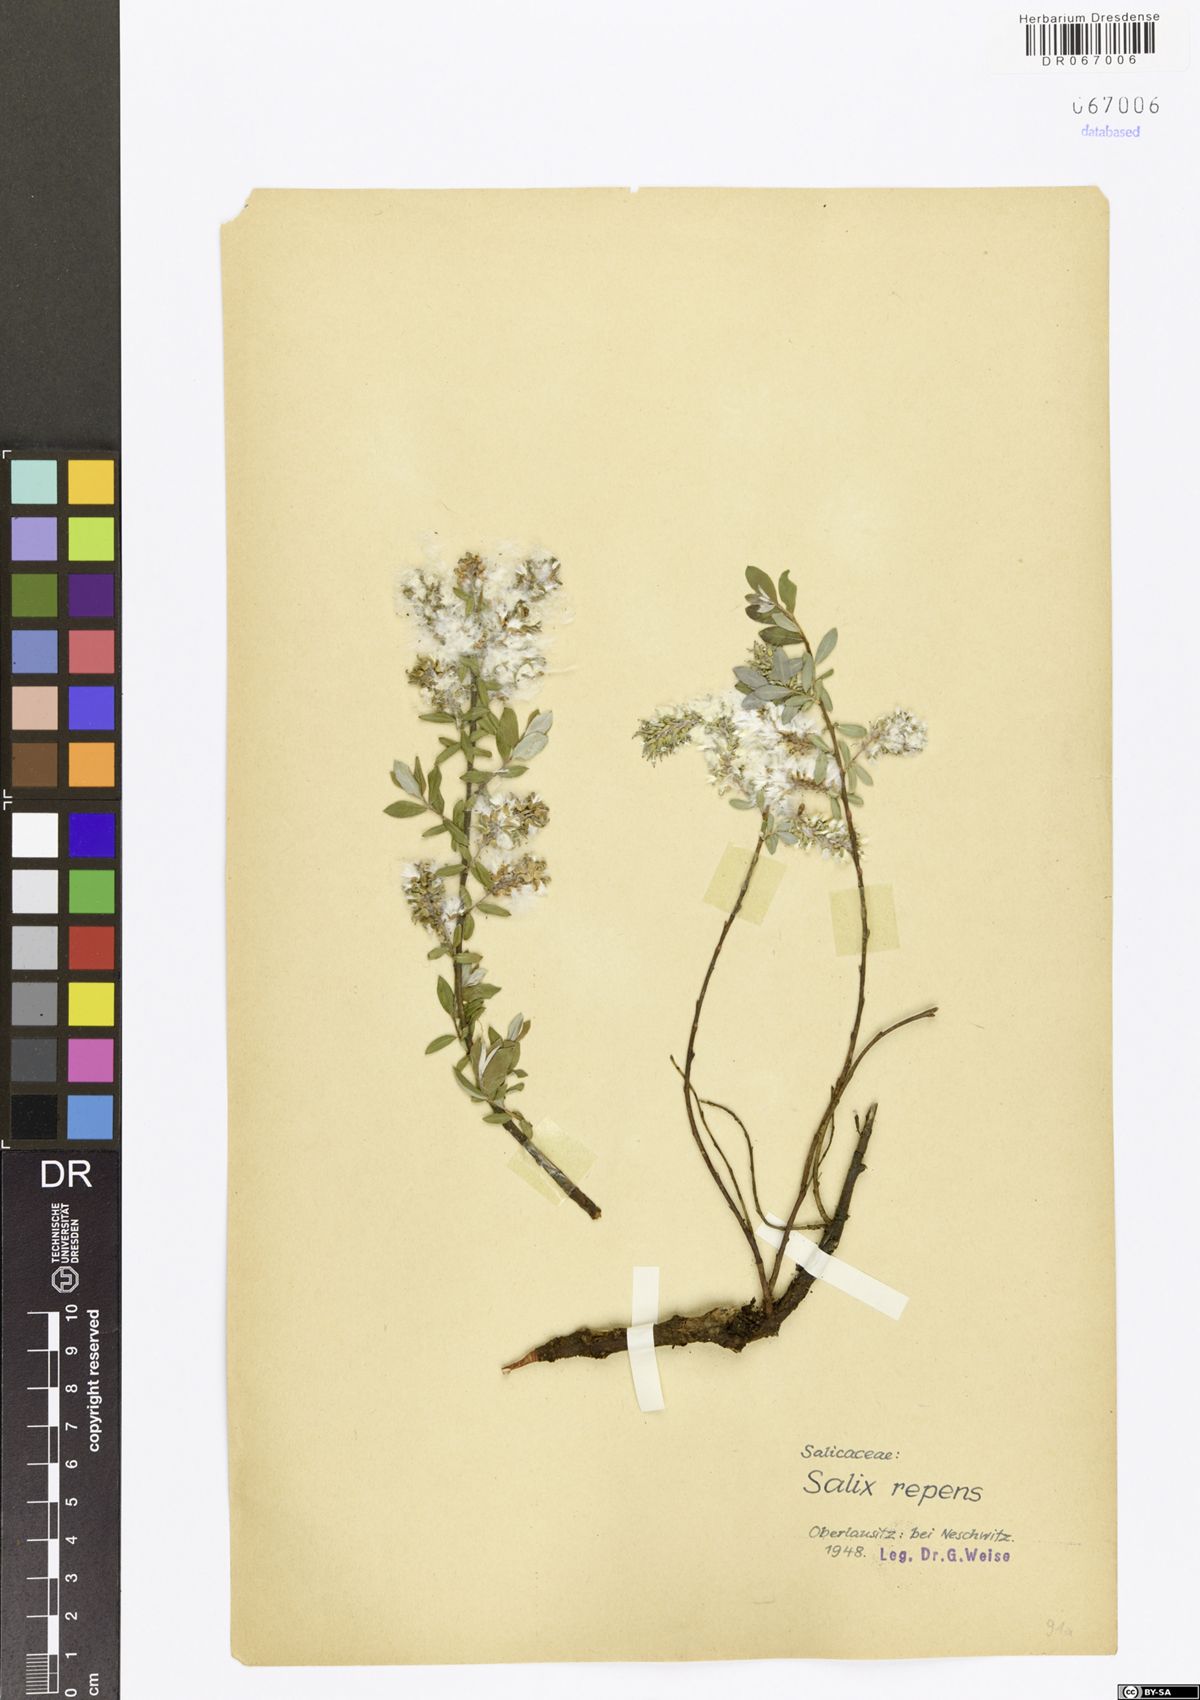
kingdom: Plantae
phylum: Tracheophyta
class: Magnoliopsida
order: Malpighiales
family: Salicaceae
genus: Salix
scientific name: Salix repens
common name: Creeping willow
